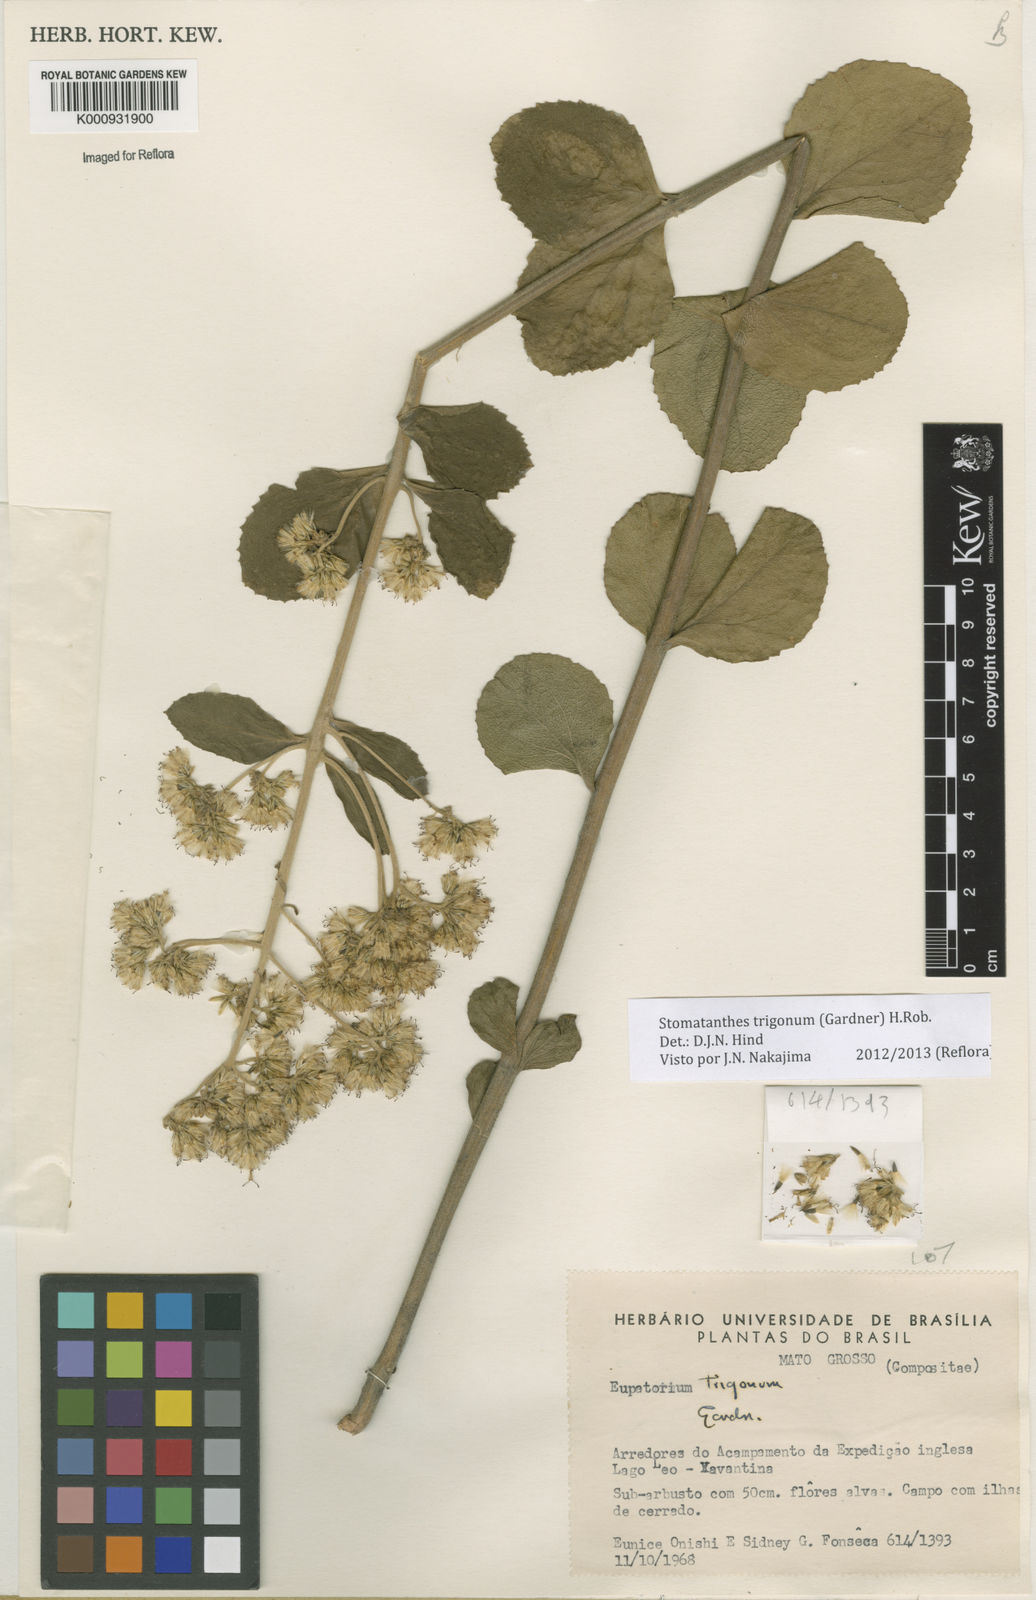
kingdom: Plantae
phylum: Tracheophyta
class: Magnoliopsida
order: Asterales
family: Asteraceae
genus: Stomatanthes
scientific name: Stomatanthes trigonus
